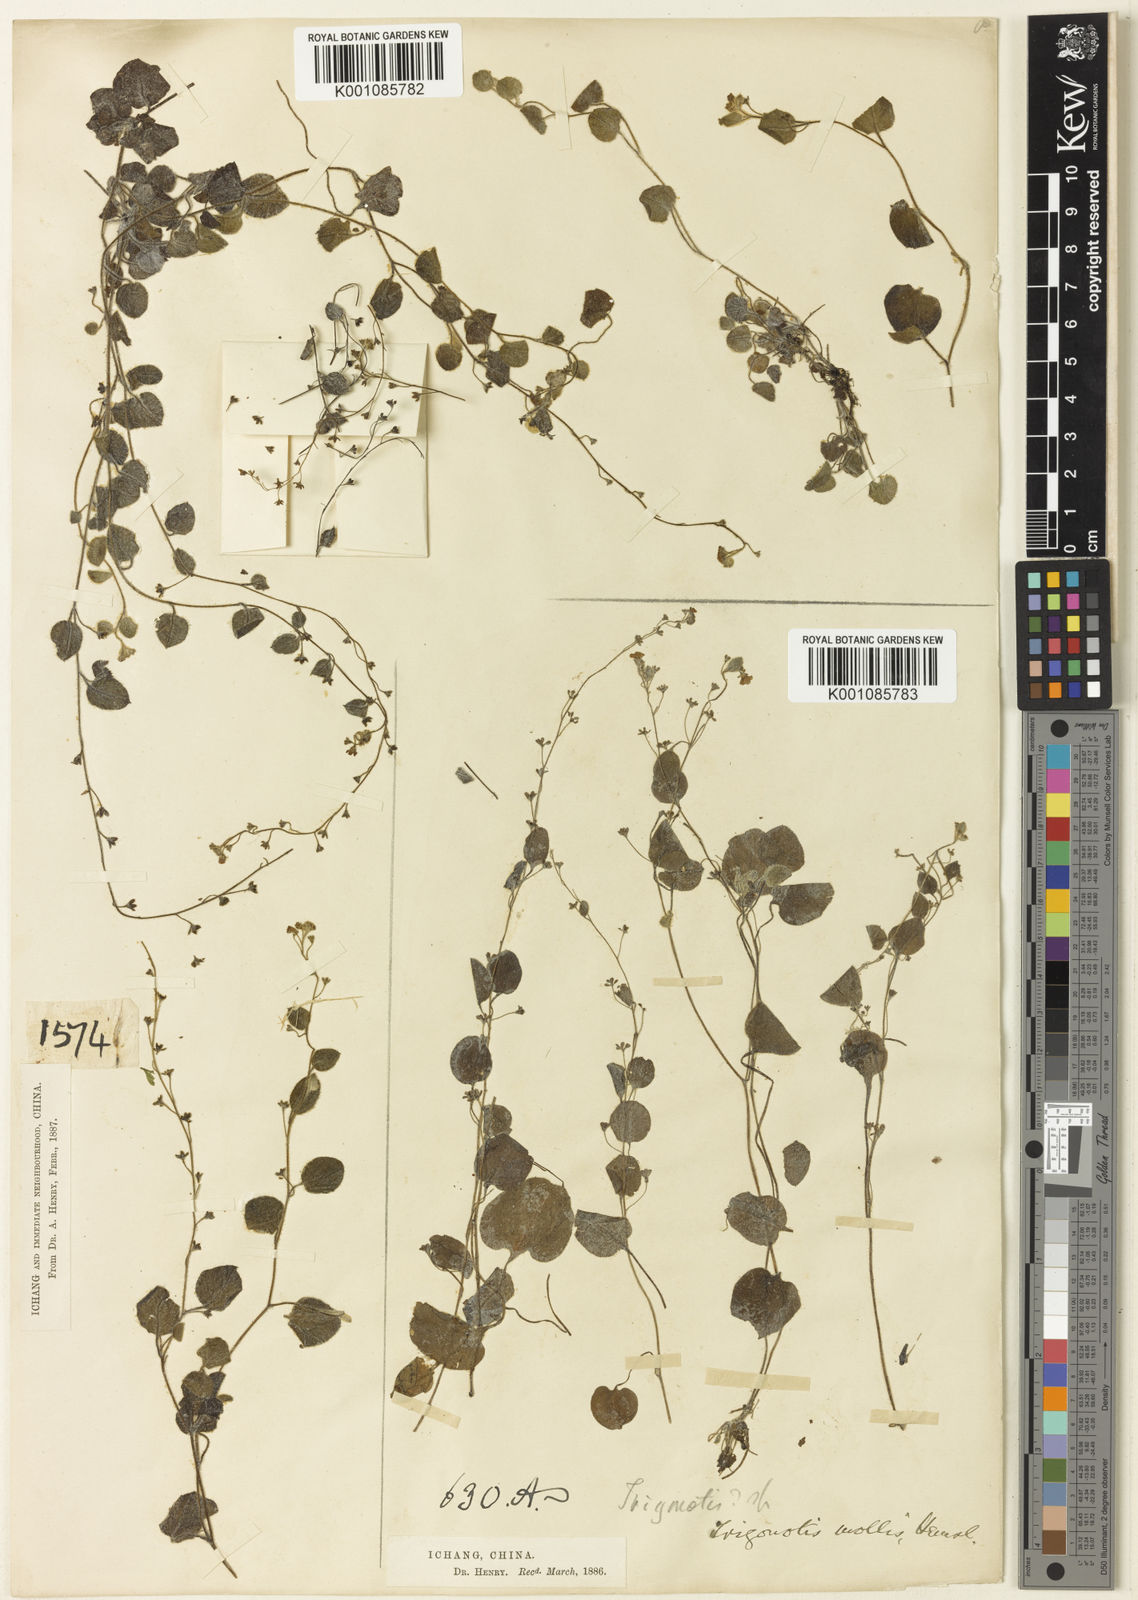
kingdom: Plantae
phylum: Tracheophyta
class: Magnoliopsida
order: Boraginales
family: Boraginaceae
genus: Trigonotis
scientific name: Trigonotis mollis
